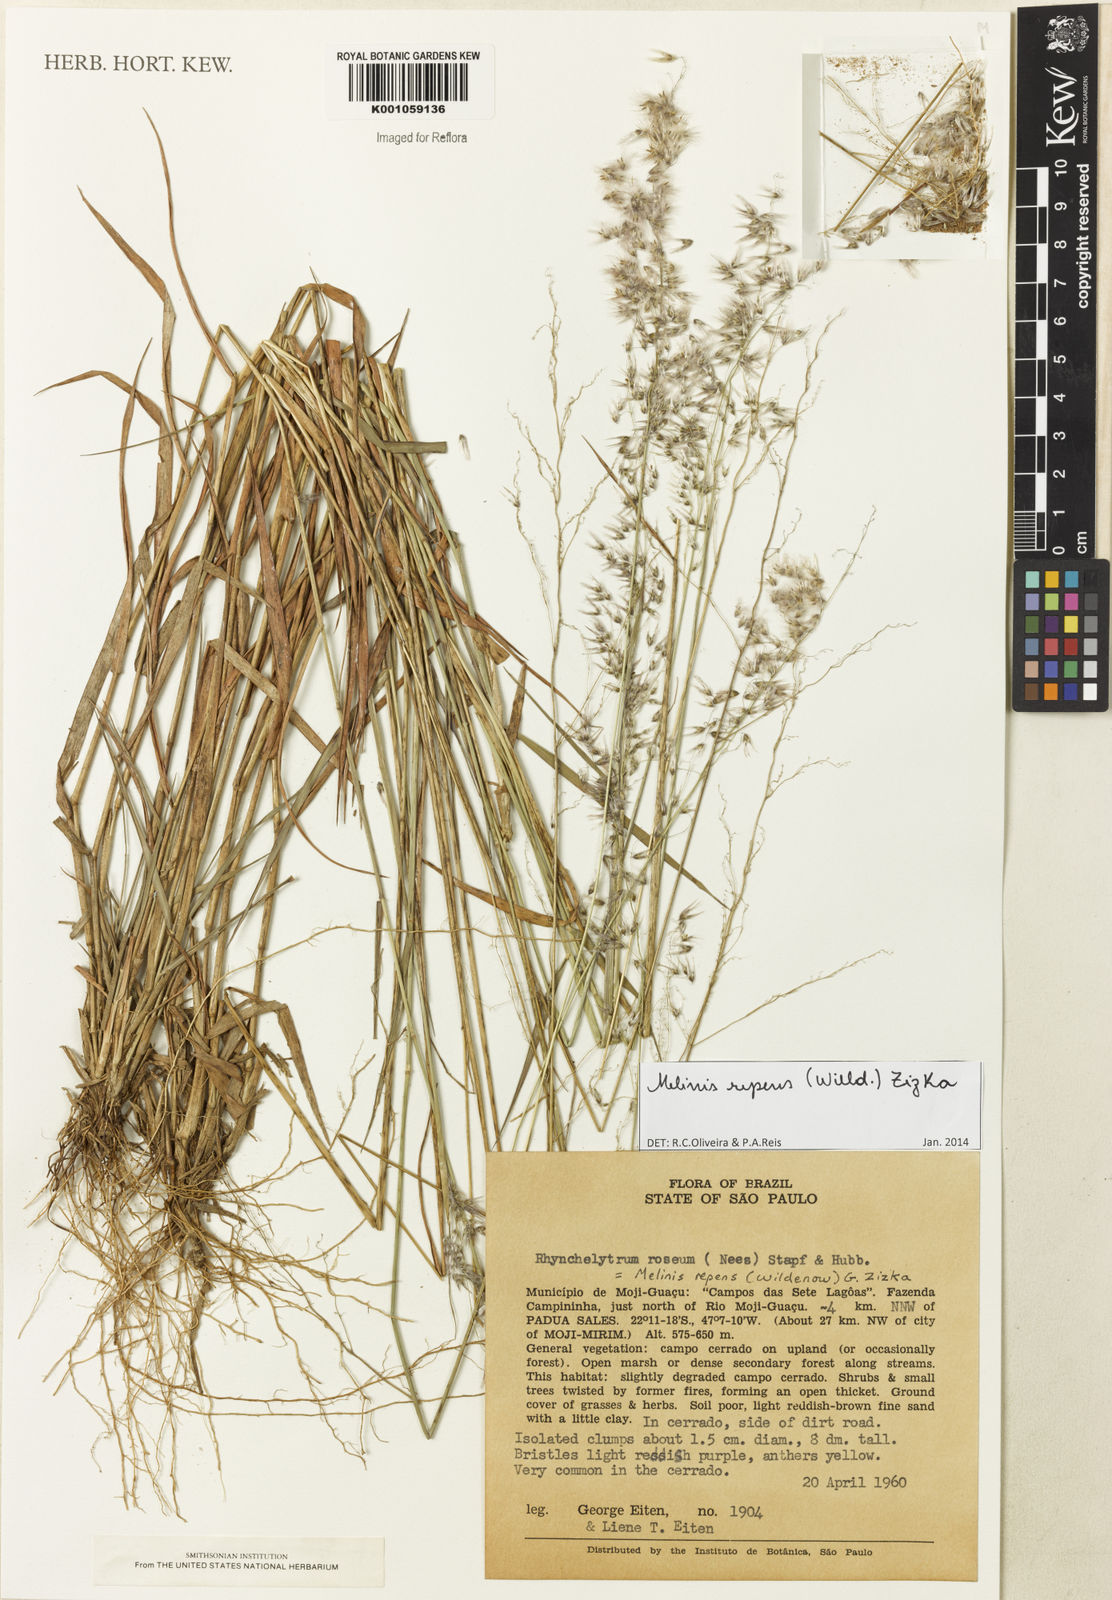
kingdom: Plantae
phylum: Tracheophyta
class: Liliopsida
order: Poales
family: Poaceae
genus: Melinis
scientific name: Melinis repens
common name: Rose natal grass
